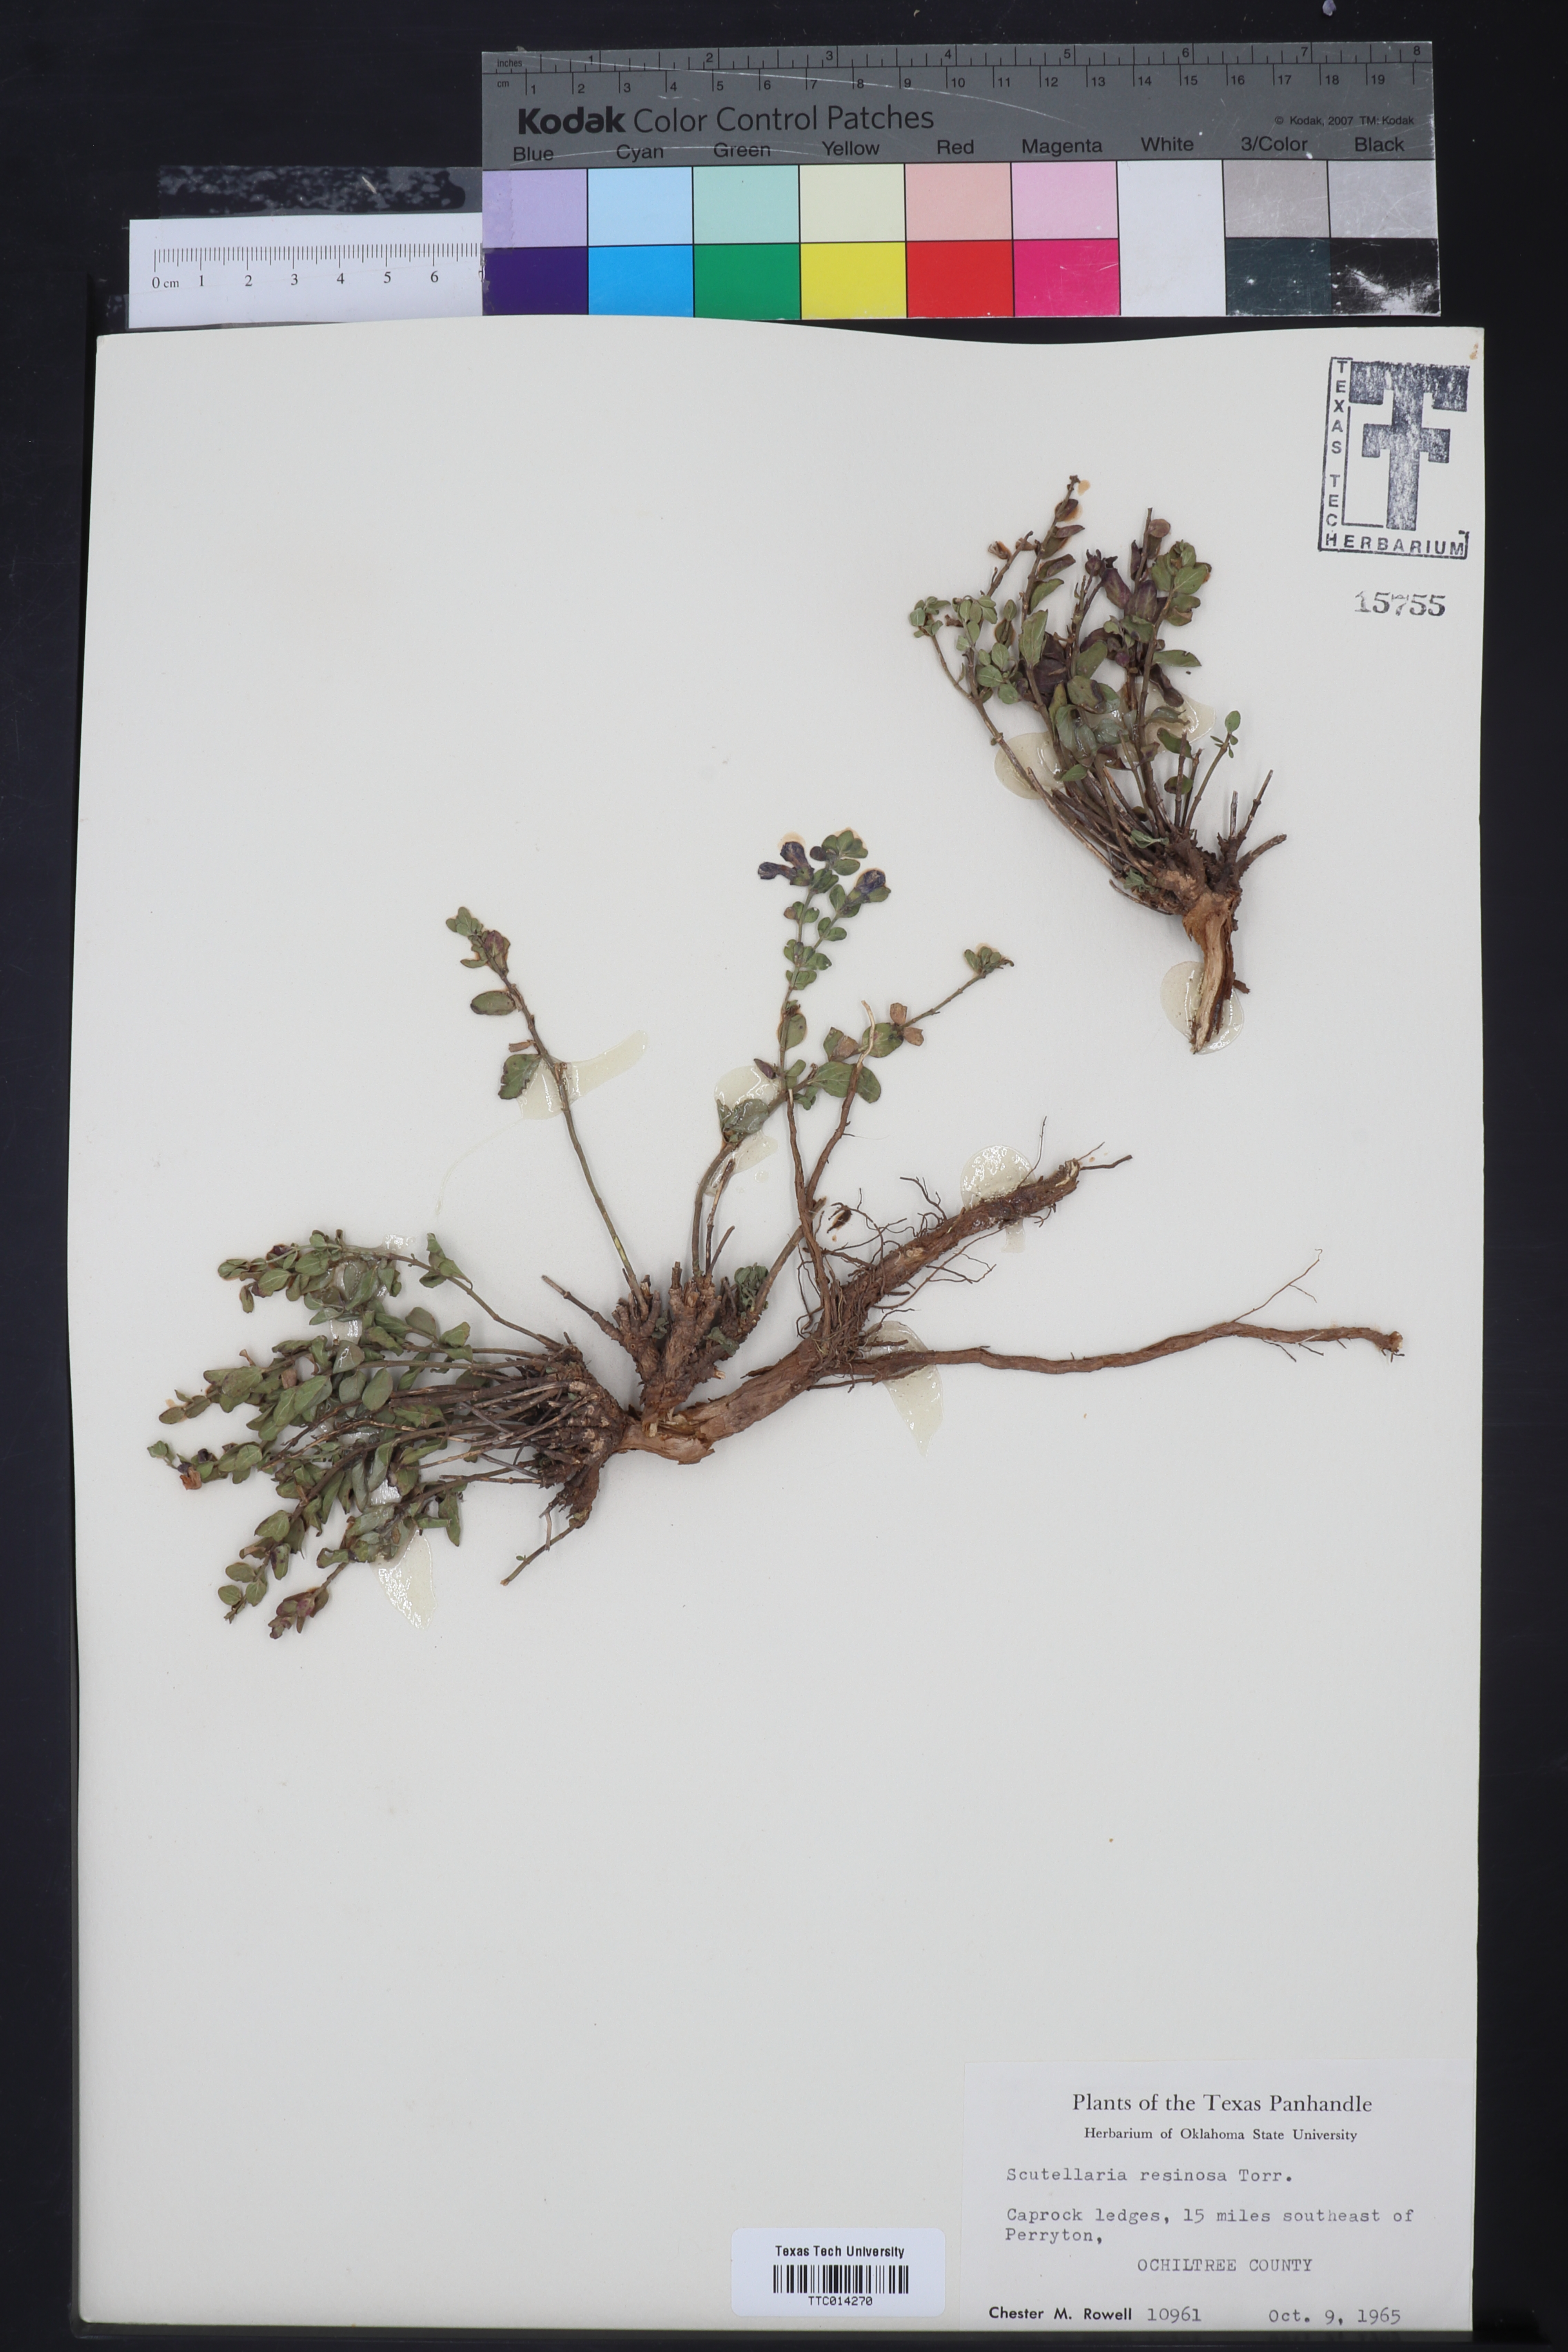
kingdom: Plantae
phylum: Tracheophyta
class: Magnoliopsida
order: Lamiales
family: Lamiaceae
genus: Scutellaria
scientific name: Scutellaria resinosa
